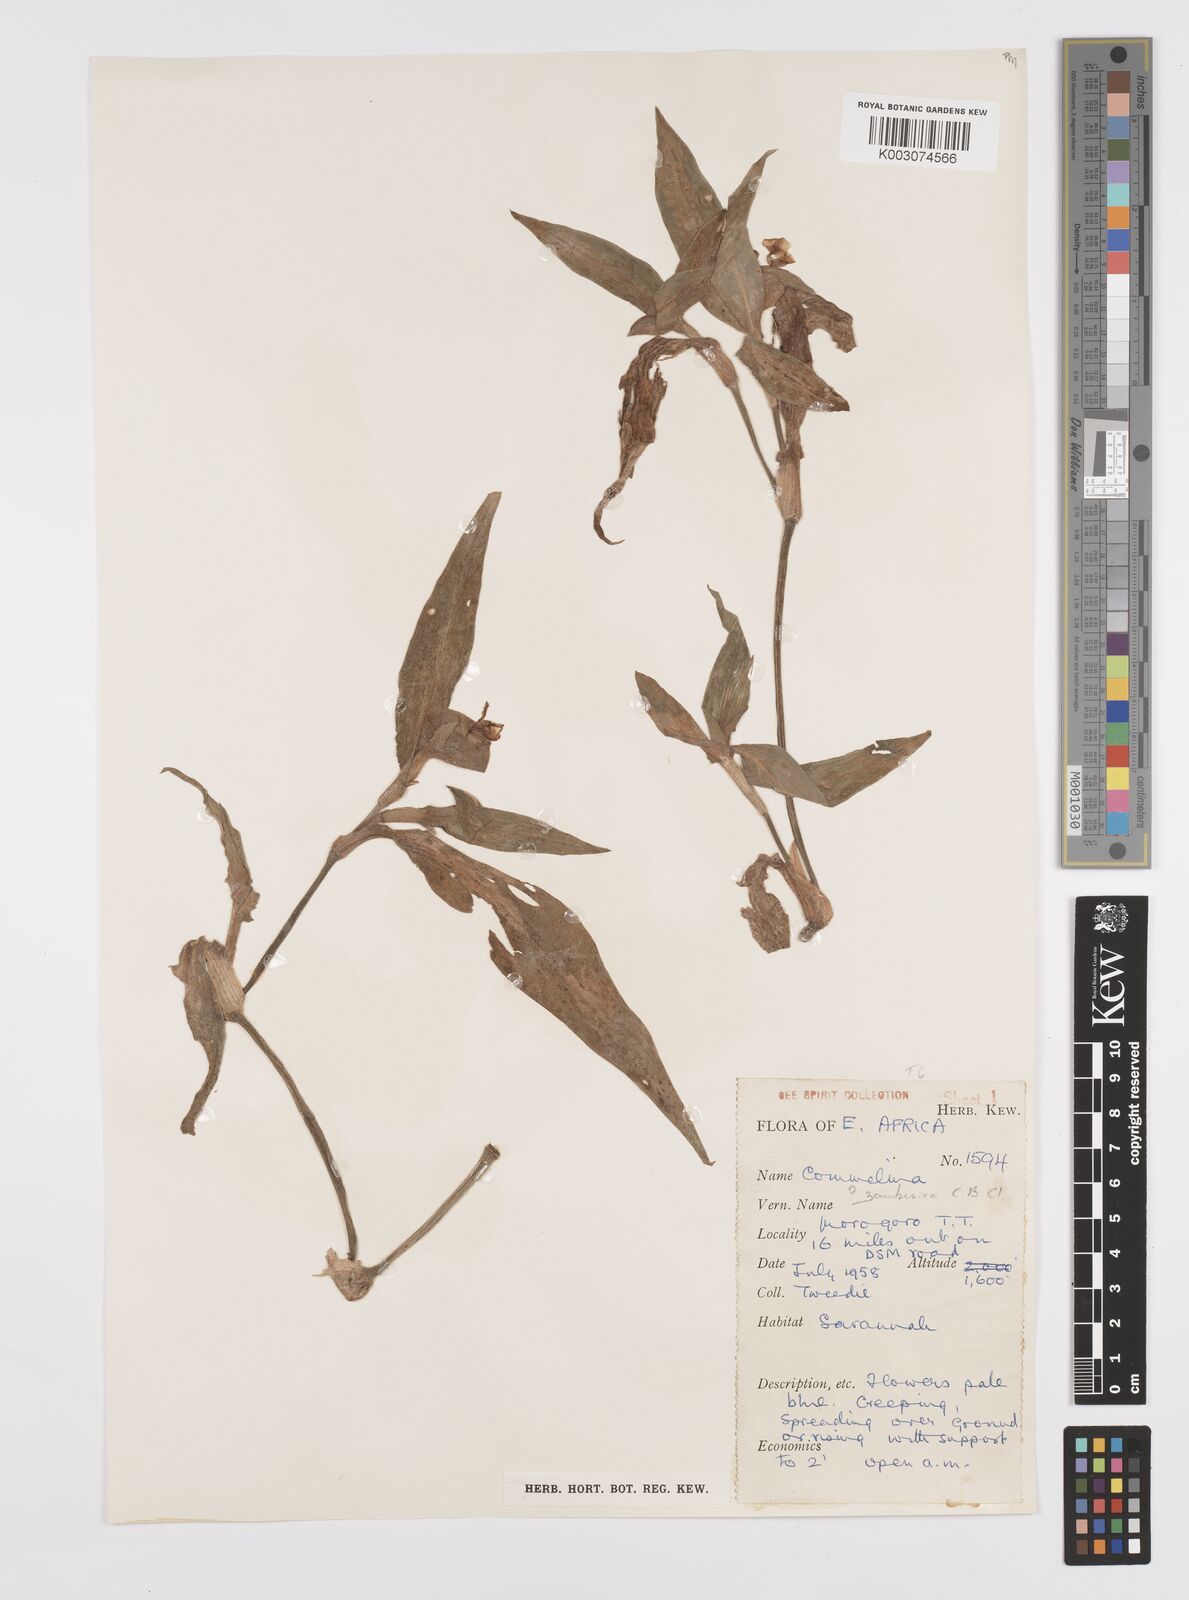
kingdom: Plantae
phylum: Tracheophyta
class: Liliopsida
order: Commelinales
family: Commelinaceae
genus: Commelina
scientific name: Commelina zambesica
